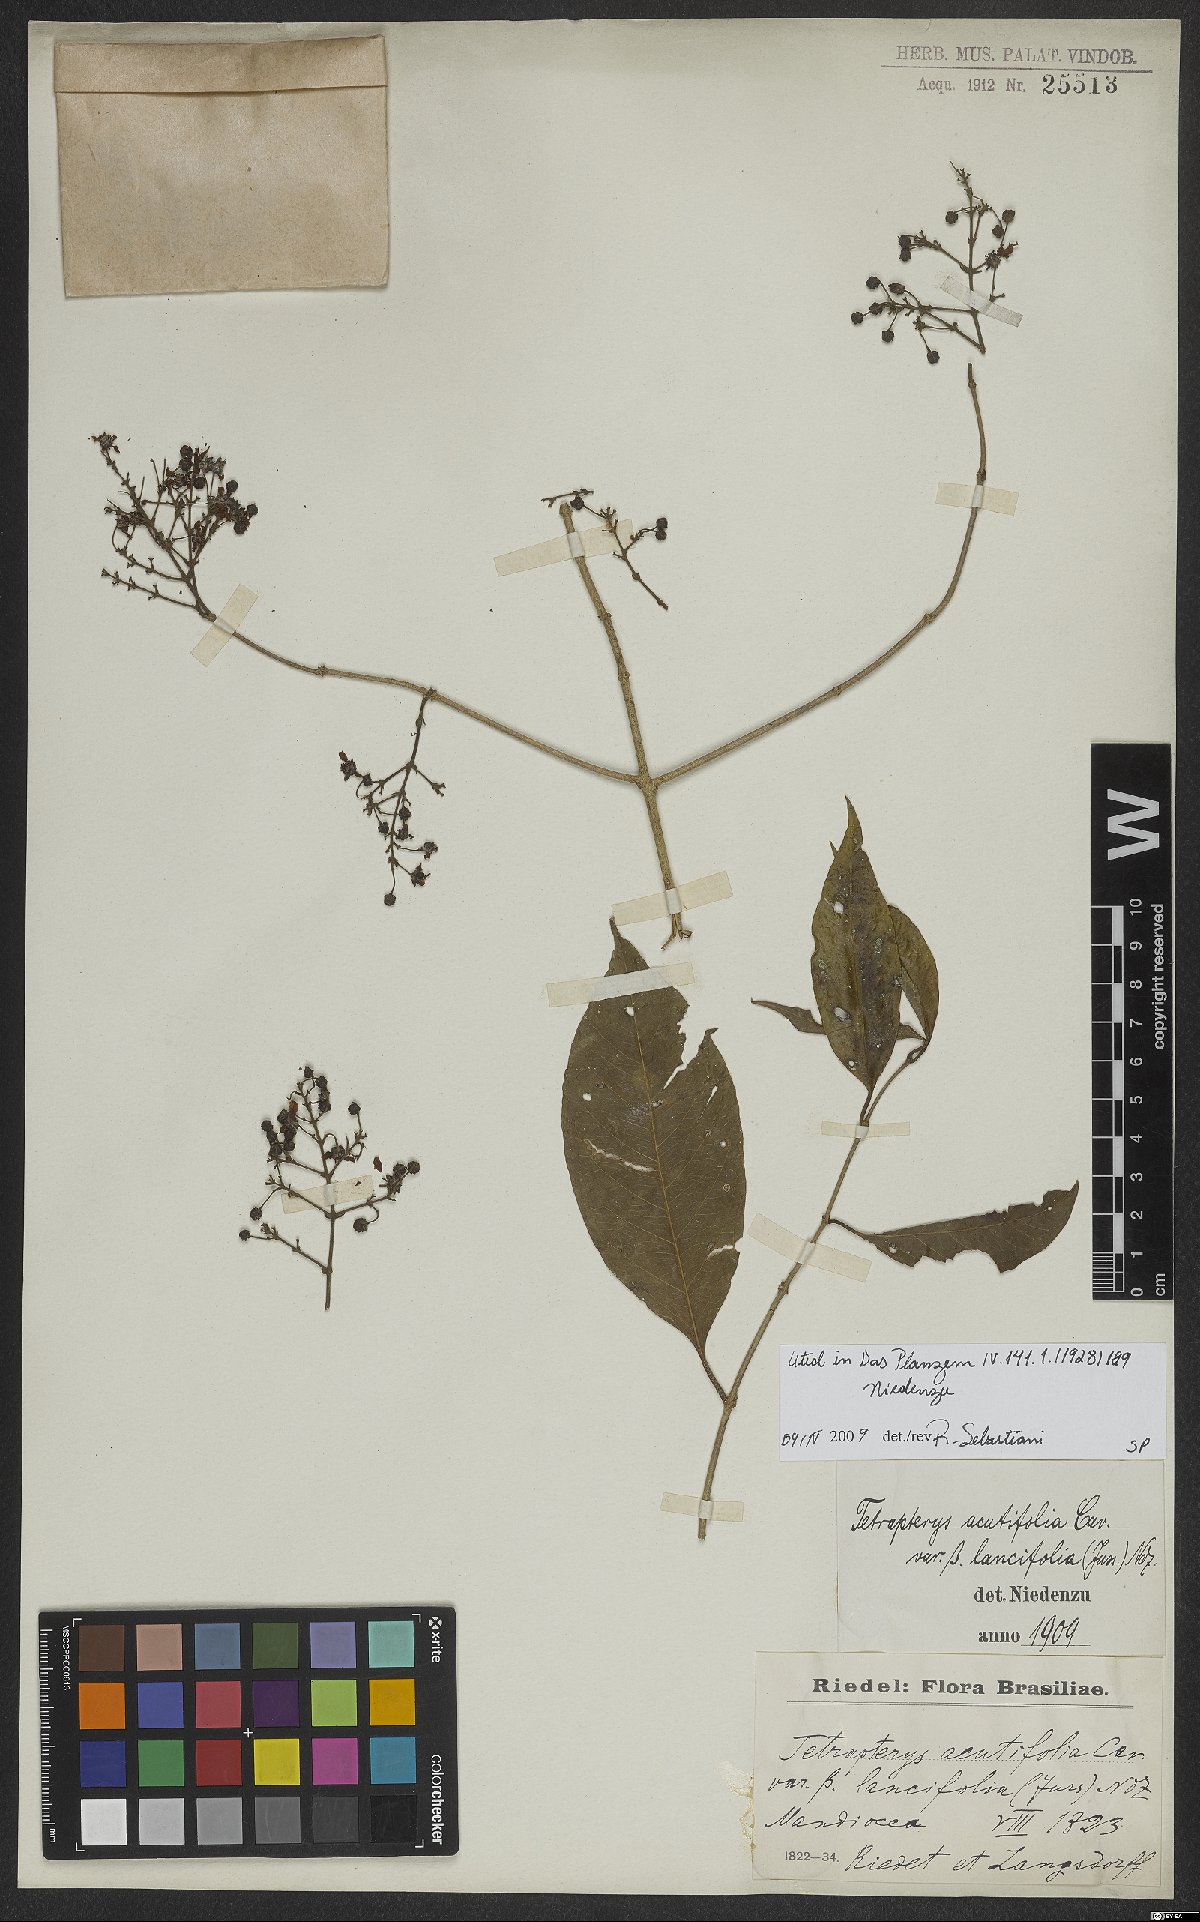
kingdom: Plantae
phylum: Tracheophyta
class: Magnoliopsida
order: Malpighiales
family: Malpighiaceae
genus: Niedenzuella
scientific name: Niedenzuella acutifolia
